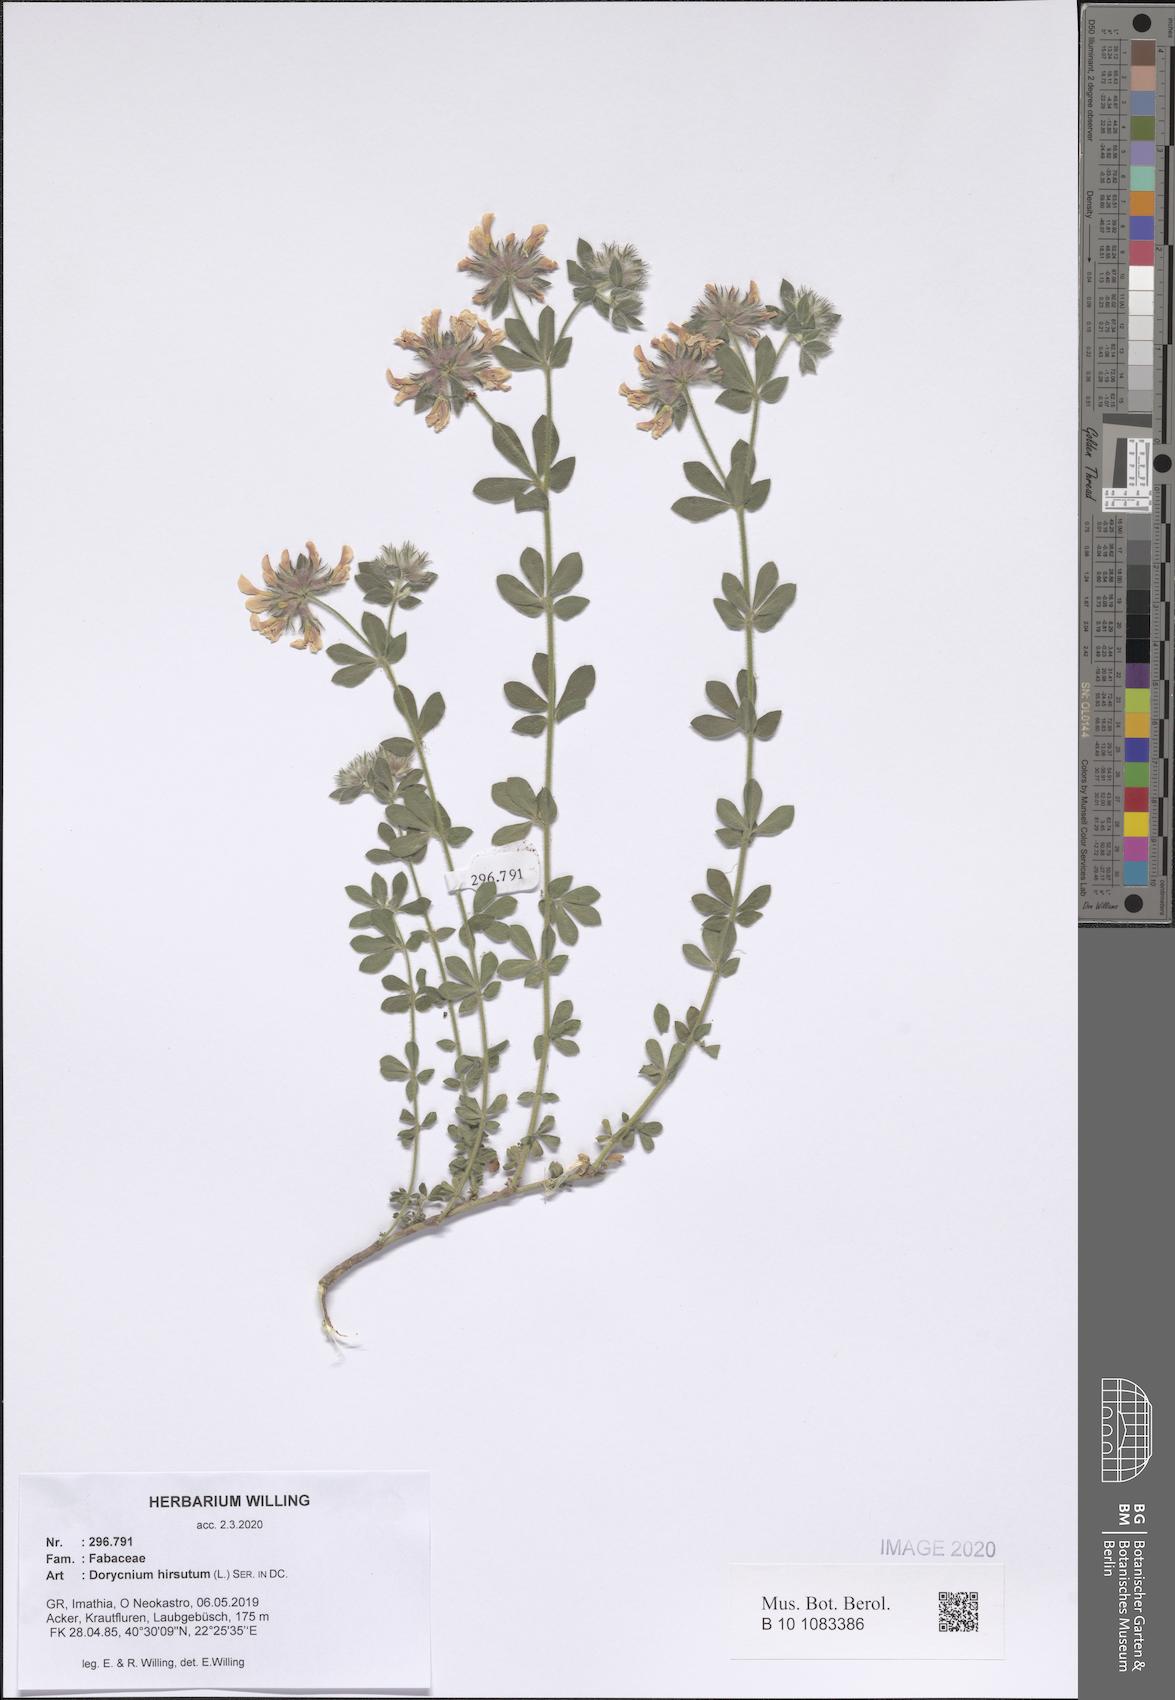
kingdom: Plantae
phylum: Tracheophyta
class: Magnoliopsida
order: Fabales
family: Fabaceae
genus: Lotus
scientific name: Lotus hirsutus
